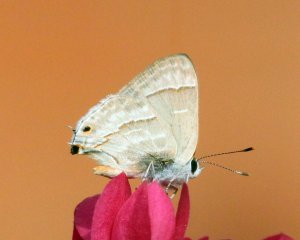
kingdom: Animalia
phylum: Arthropoda
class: Insecta
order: Lepidoptera
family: Lycaenidae
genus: Thecla
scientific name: Thecla yojoa
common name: Yojoa Scrub-Hairstreak
